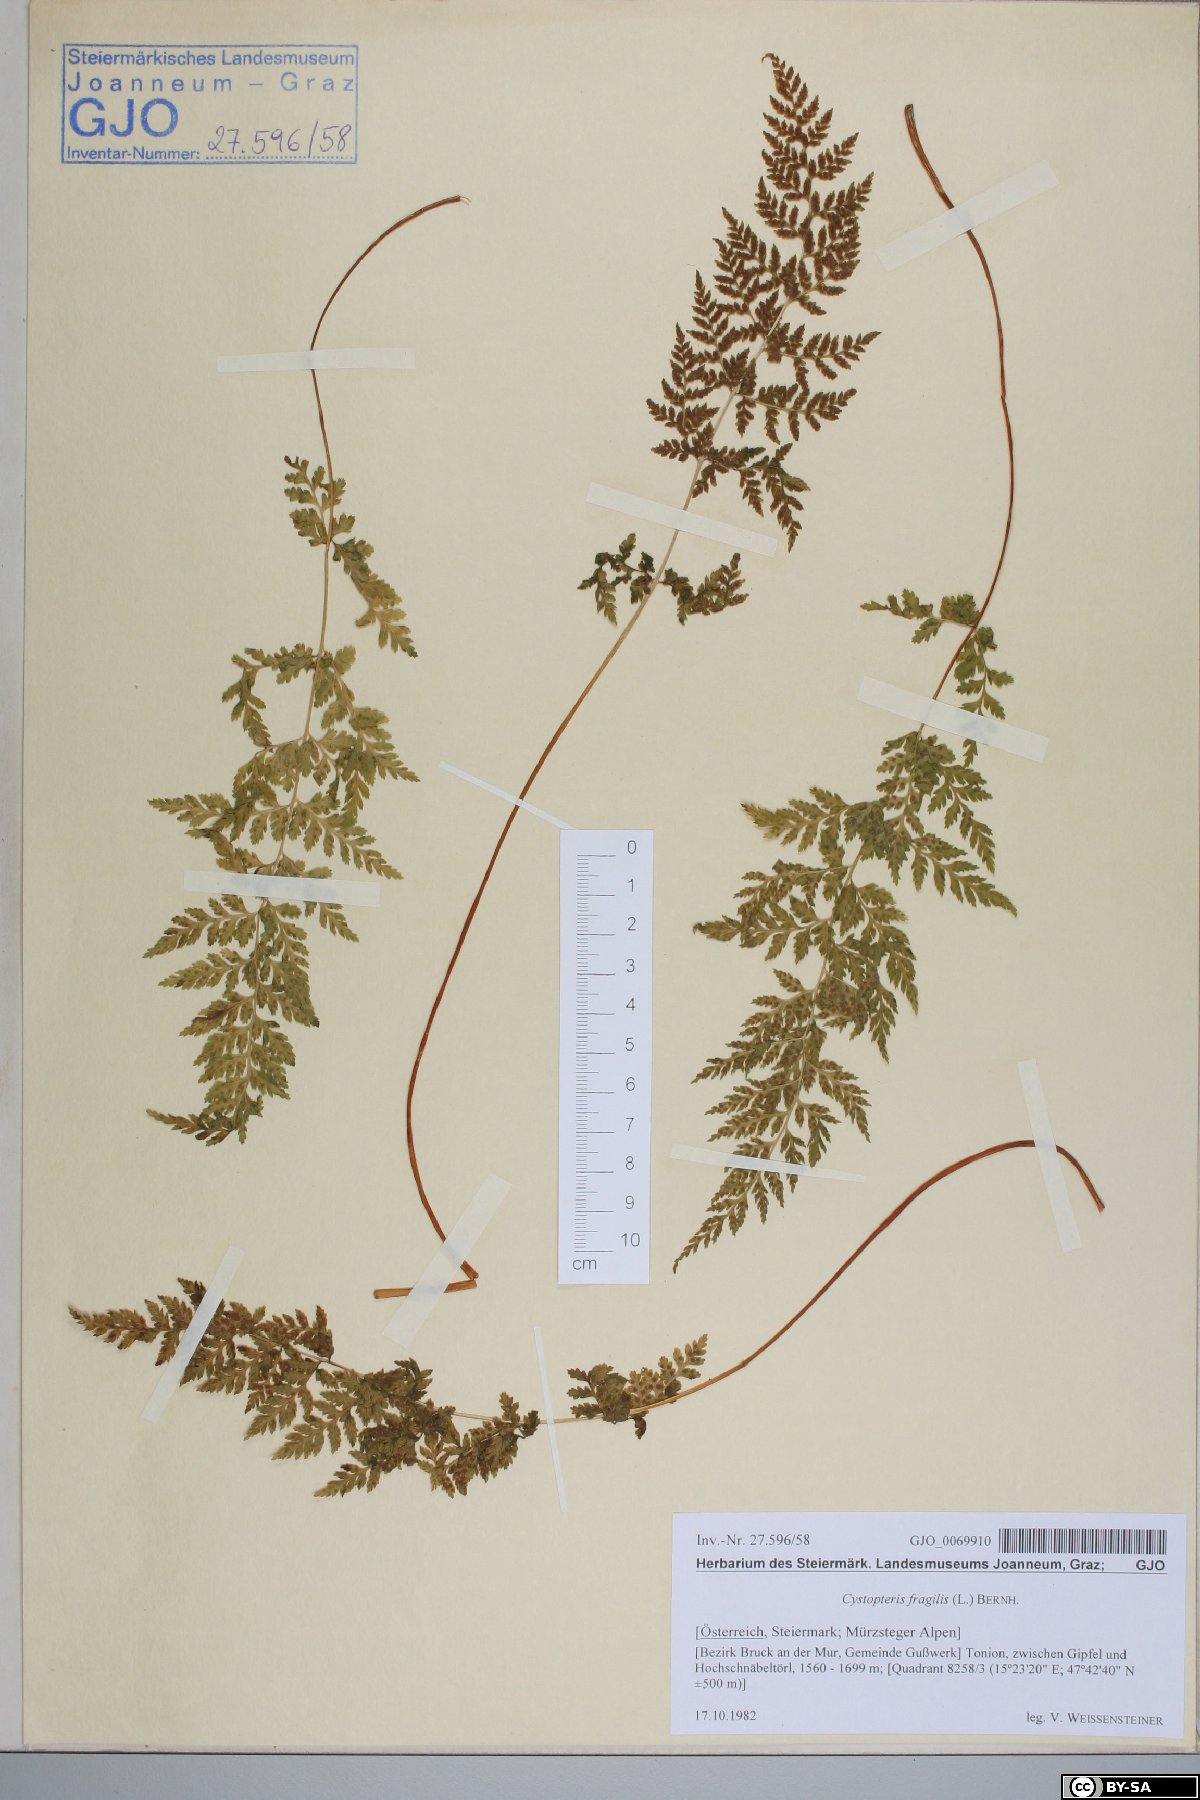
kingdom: Plantae
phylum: Tracheophyta
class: Polypodiopsida
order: Polypodiales
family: Cystopteridaceae
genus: Cystopteris
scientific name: Cystopteris fragilis
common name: Brittle bladder fern
